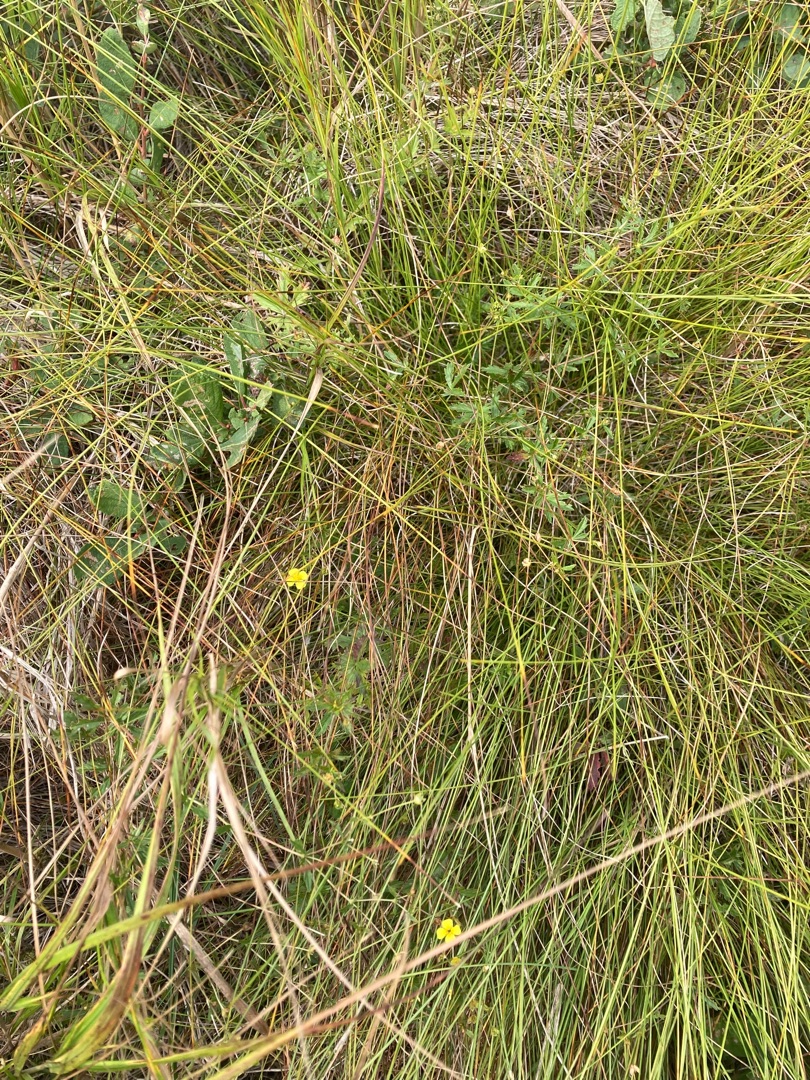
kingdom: Plantae
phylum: Tracheophyta
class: Magnoliopsida
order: Rosales
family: Rosaceae
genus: Potentilla
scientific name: Potentilla erecta
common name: Tormentil
